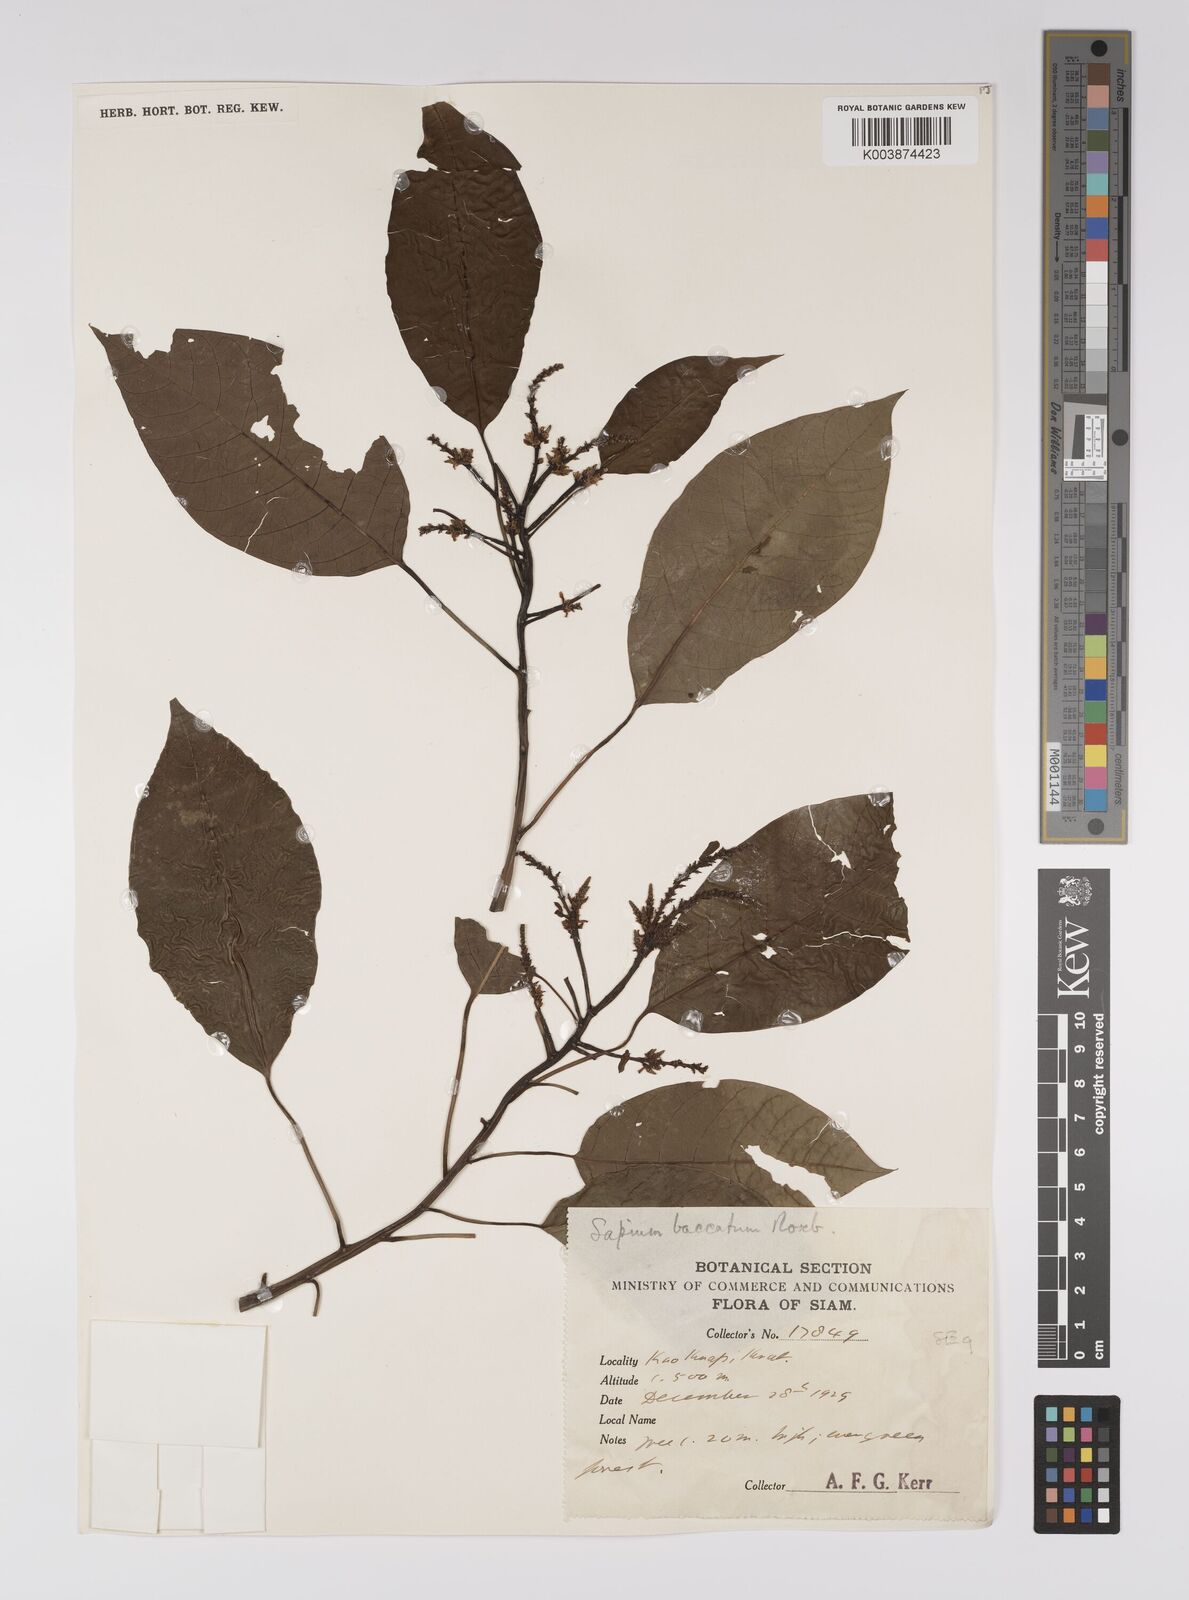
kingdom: Plantae
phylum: Tracheophyta
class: Magnoliopsida
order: Malpighiales
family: Euphorbiaceae
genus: Balakata
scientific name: Balakata baccata
